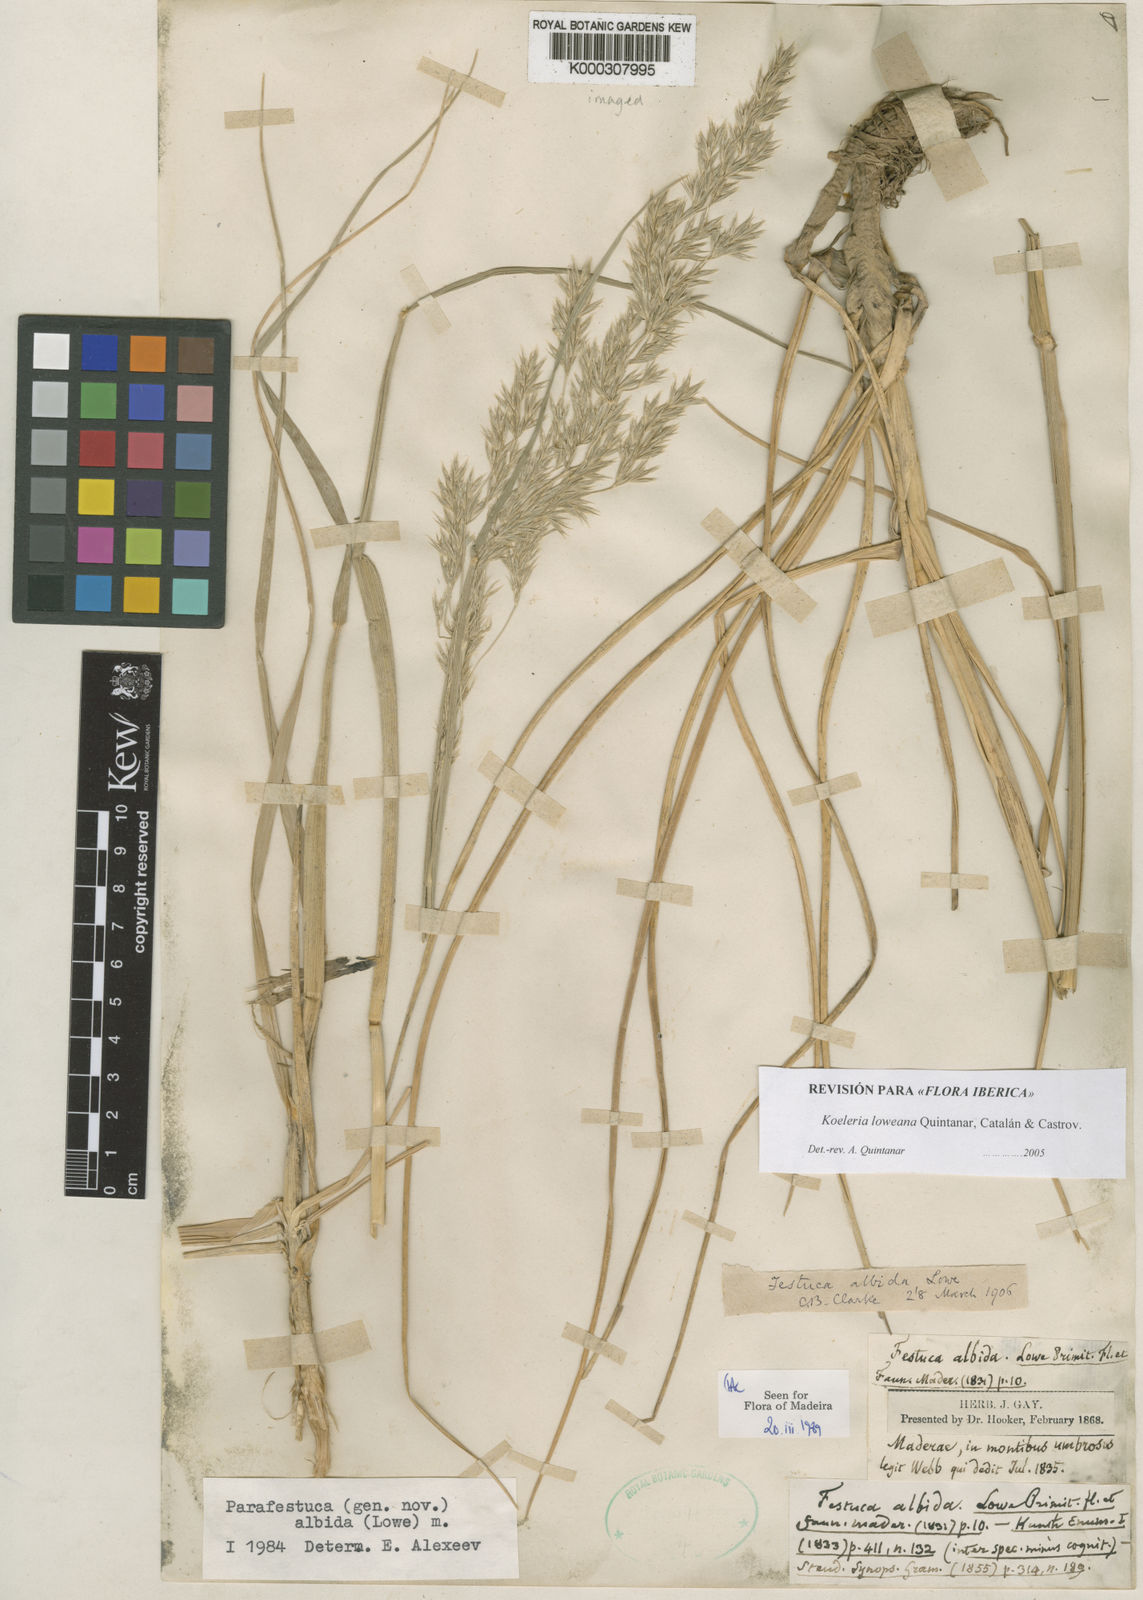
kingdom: Plantae
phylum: Tracheophyta
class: Liliopsida
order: Poales
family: Poaceae
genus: Koeleria
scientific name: Koeleria
